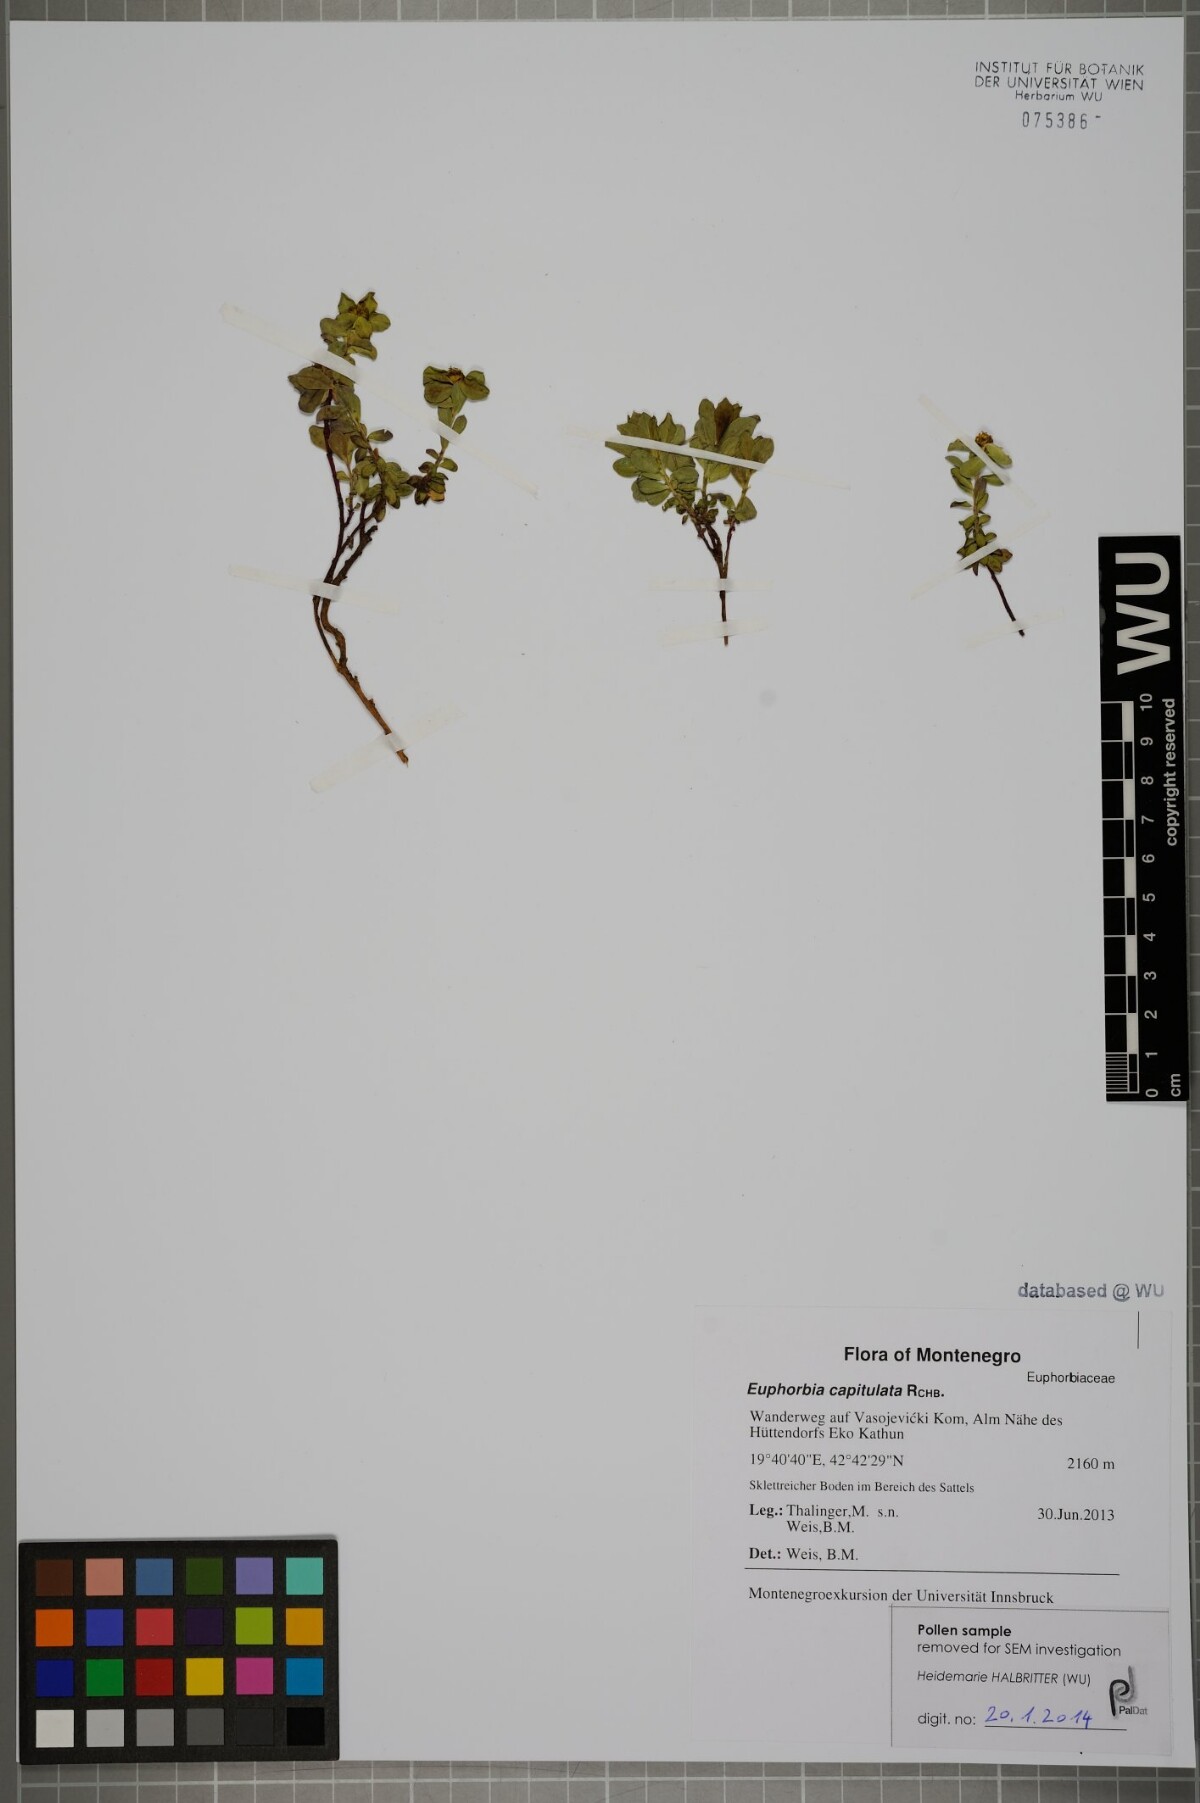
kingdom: Plantae
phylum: Tracheophyta
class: Magnoliopsida
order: Malpighiales
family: Euphorbiaceae
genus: Euphorbia
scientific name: Euphorbia capitulata
